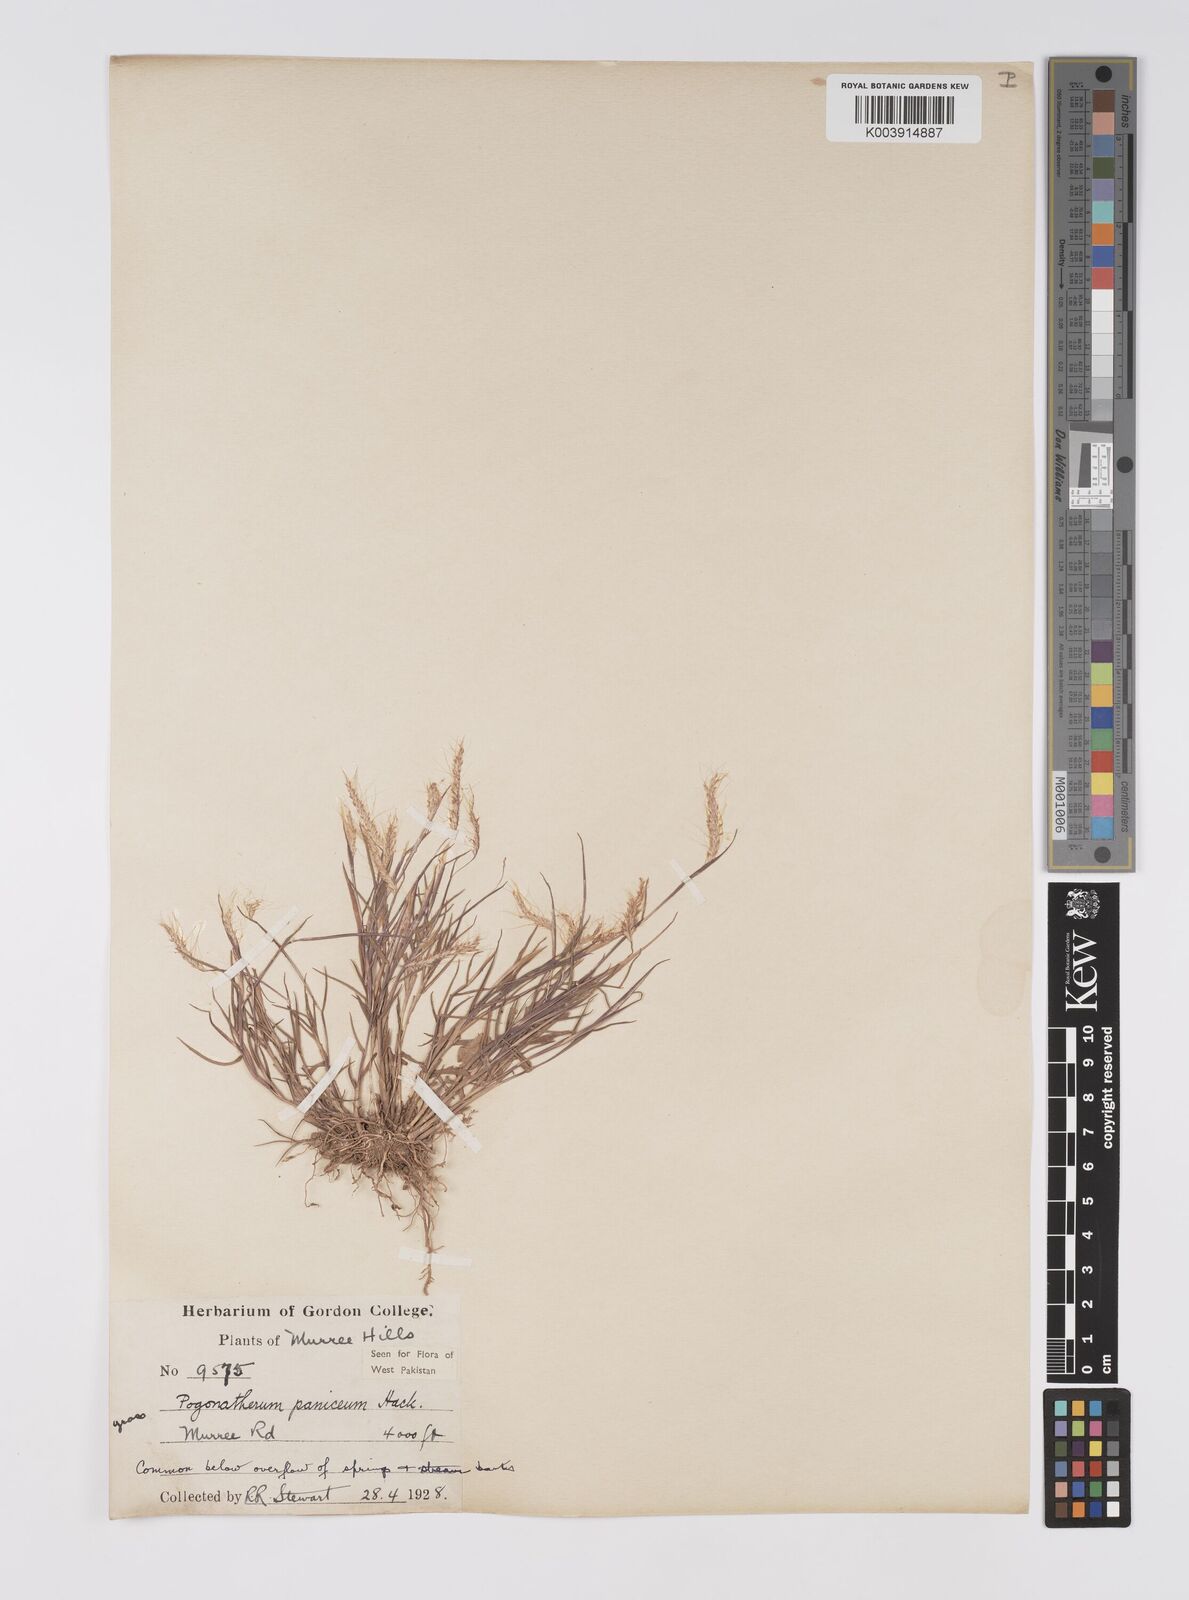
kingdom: Plantae
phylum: Tracheophyta
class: Liliopsida
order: Poales
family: Poaceae
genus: Pogonatherum
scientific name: Pogonatherum paniceum
